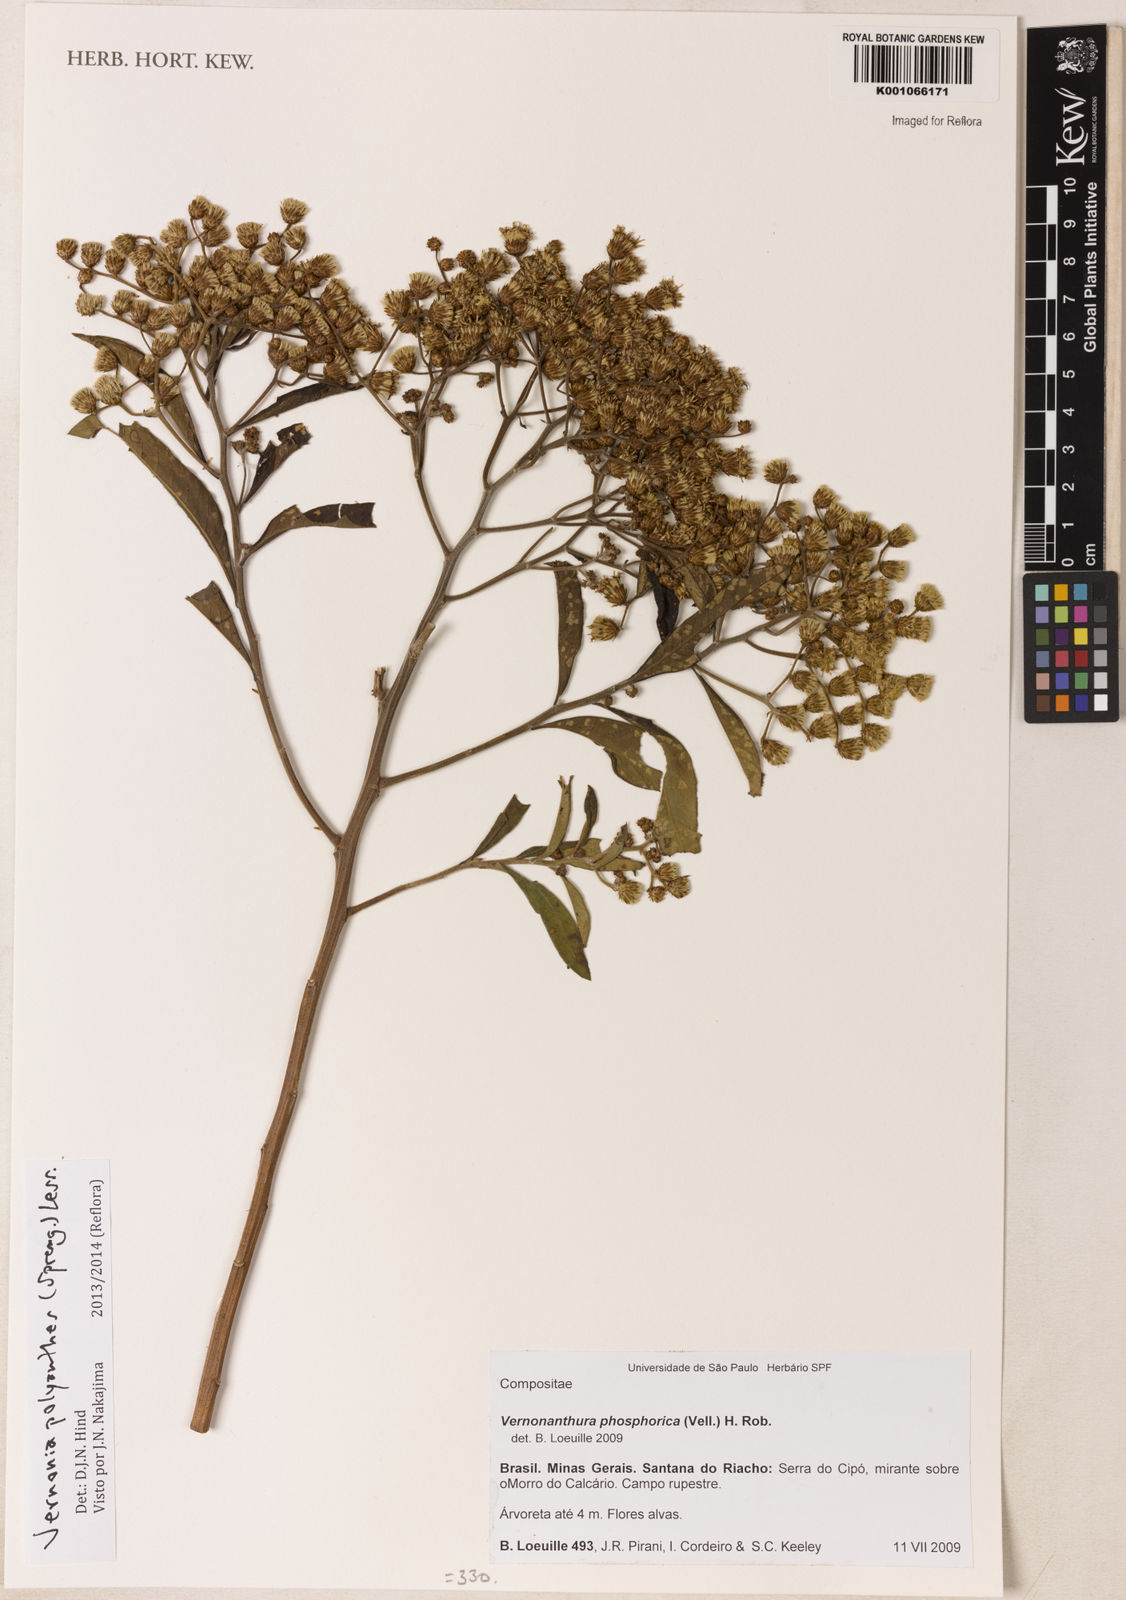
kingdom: Plantae
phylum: Tracheophyta
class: Magnoliopsida
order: Asterales
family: Asteraceae
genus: Vernonanthura
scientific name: Vernonanthura polyanthes
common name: Tree aster
